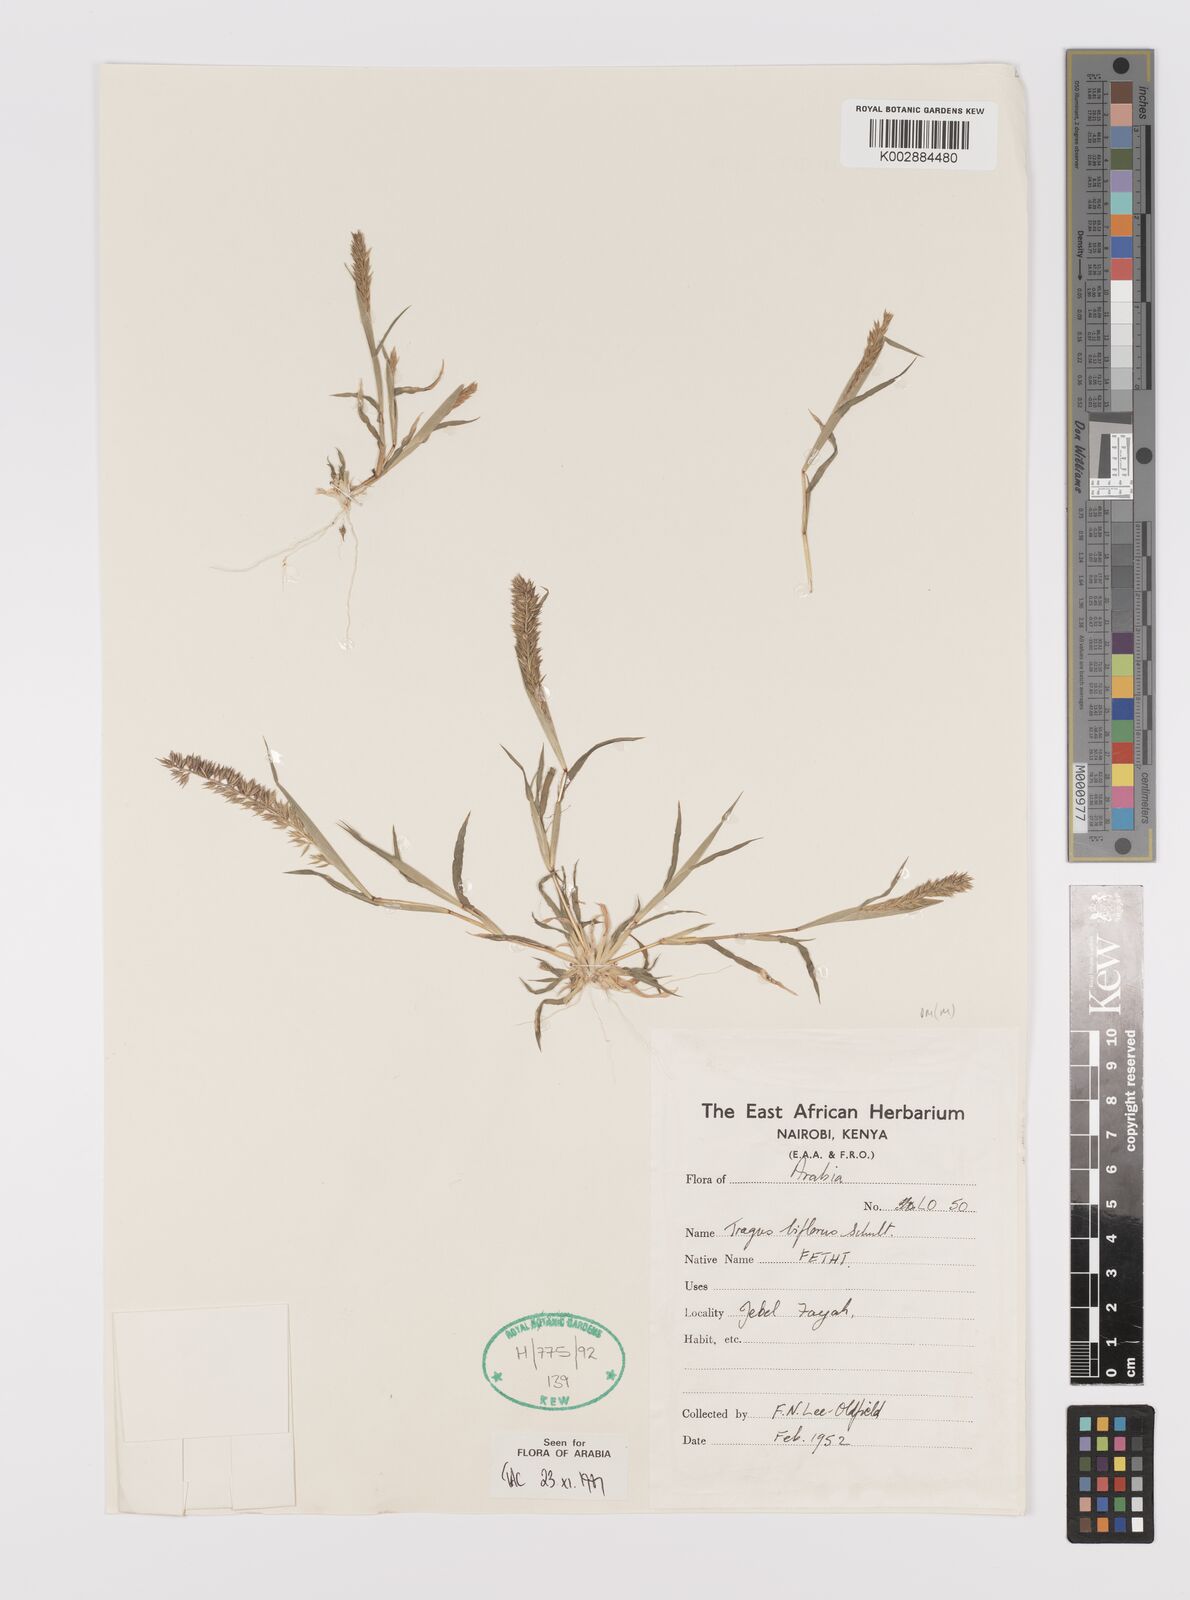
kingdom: Plantae
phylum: Tracheophyta
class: Liliopsida
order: Poales
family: Poaceae
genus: Tragus
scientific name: Tragus racemosus
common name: European bur-grass
